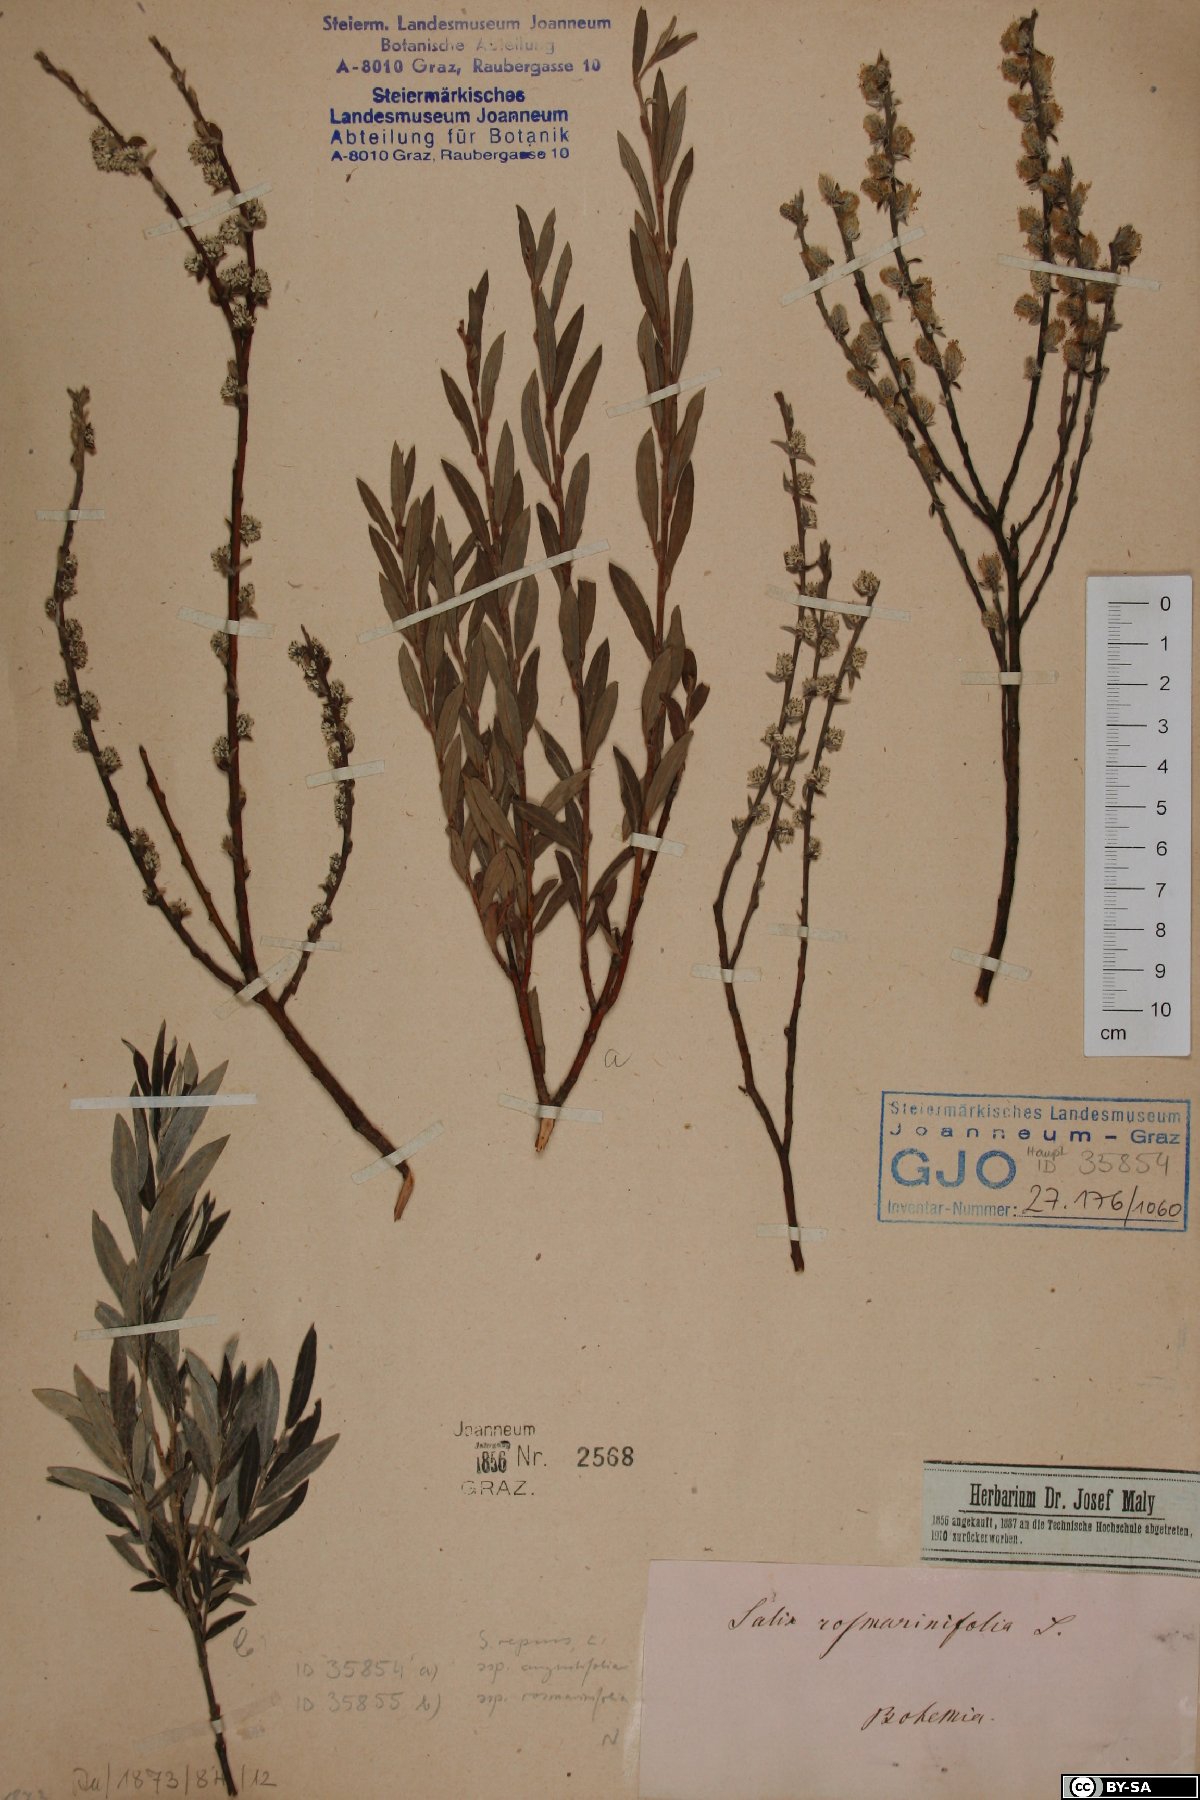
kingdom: Plantae
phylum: Tracheophyta
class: Magnoliopsida
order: Malpighiales
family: Salicaceae
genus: Salix
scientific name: Salix rosmarinifolia
